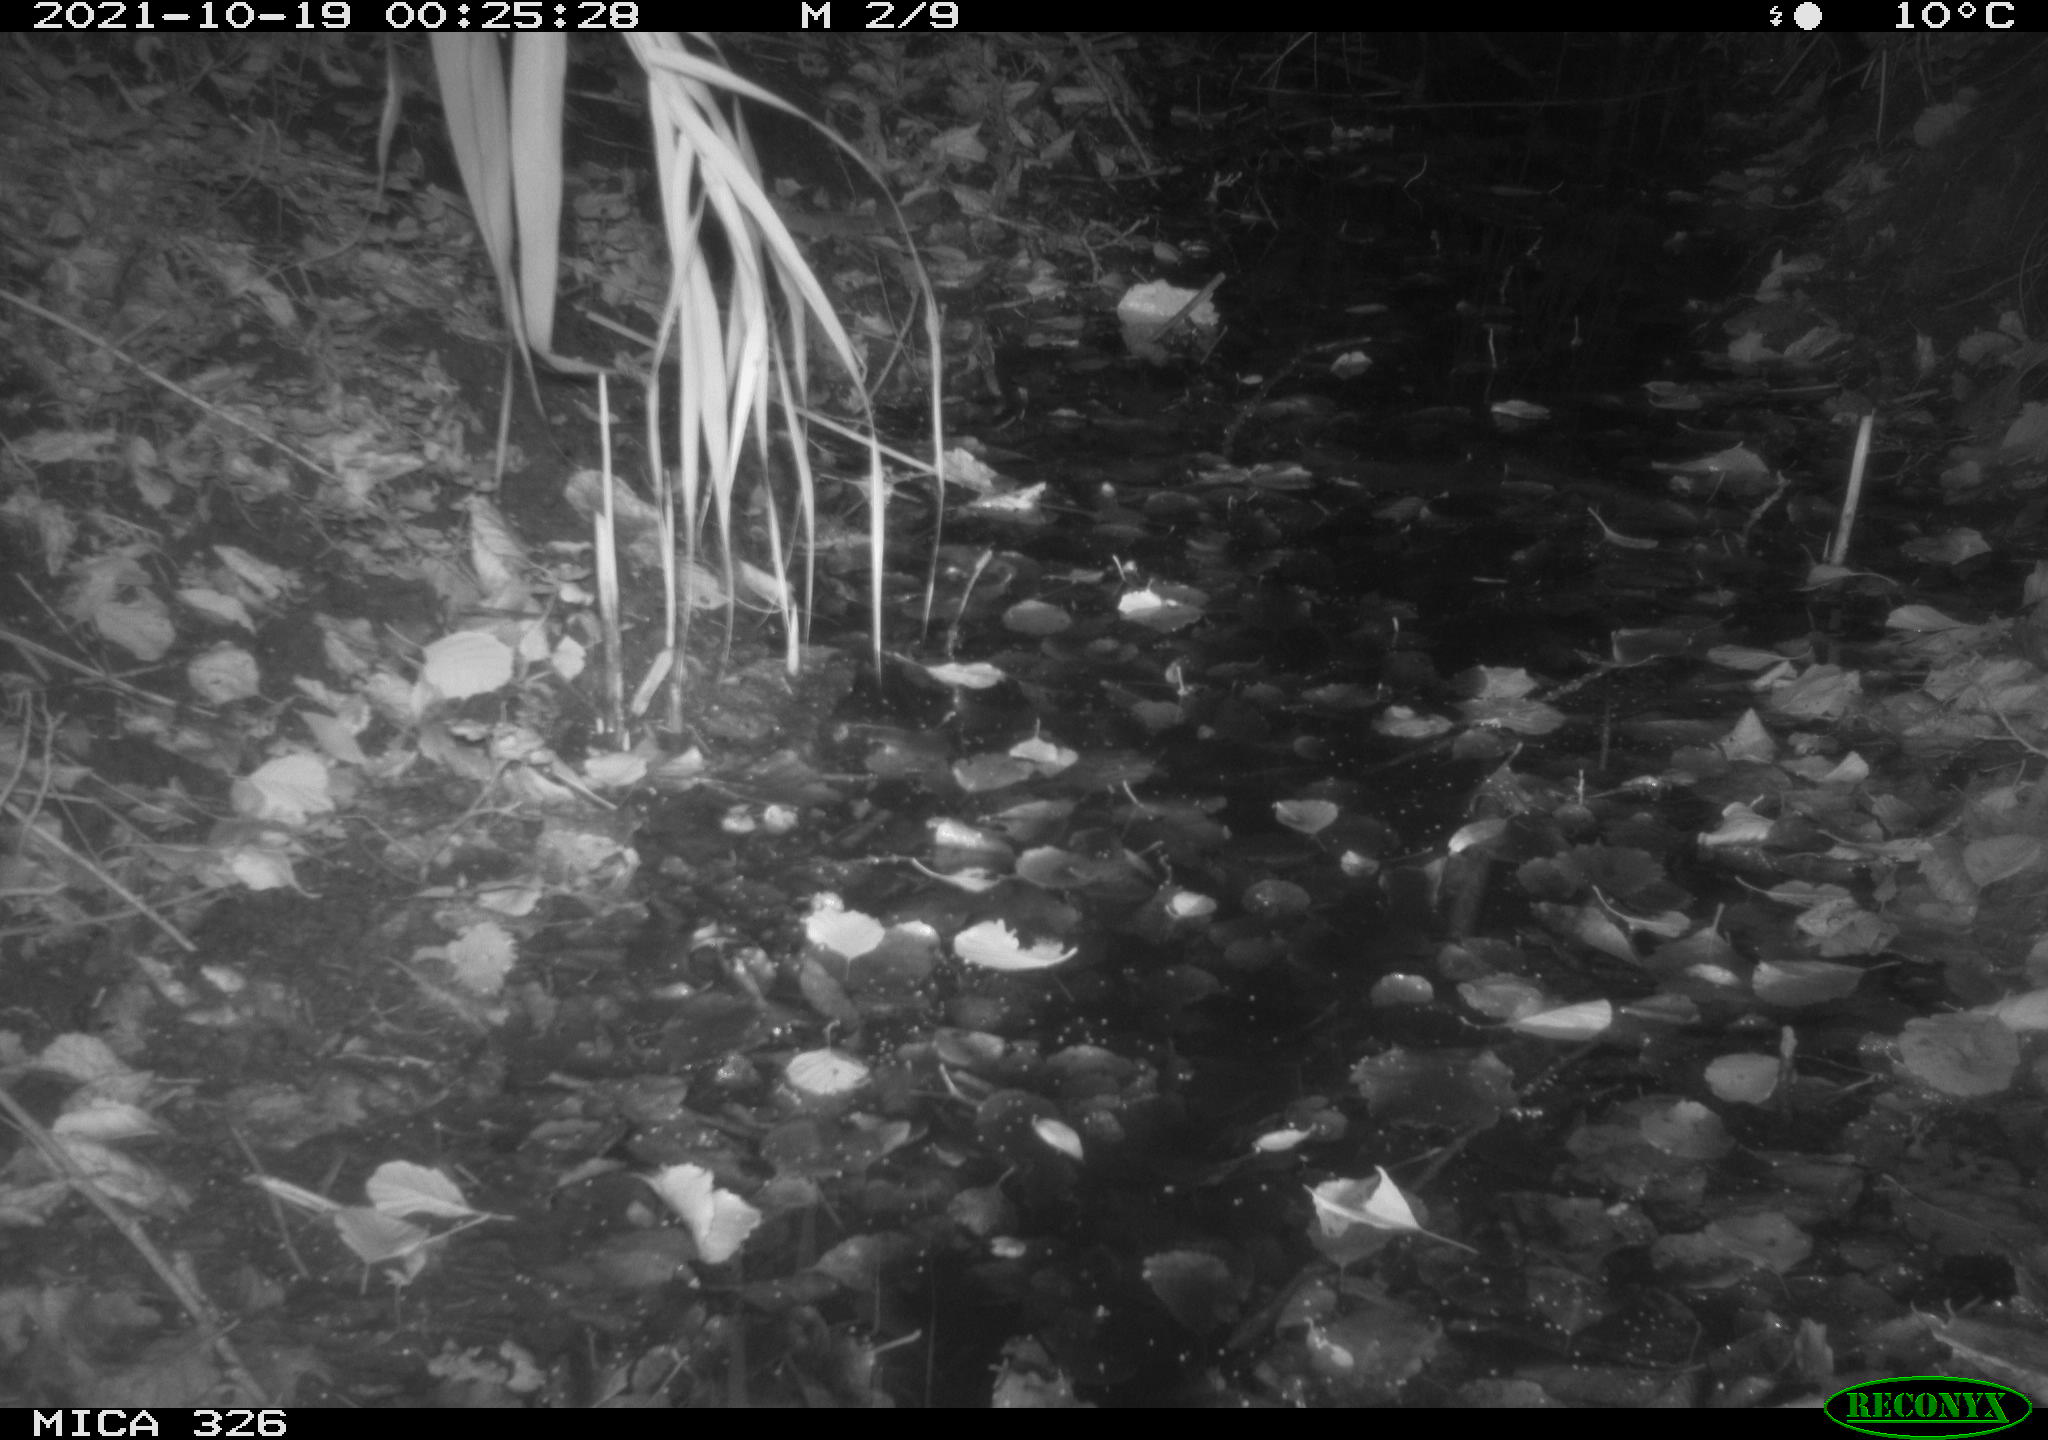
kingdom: Animalia
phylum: Chordata
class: Mammalia
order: Rodentia
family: Muridae
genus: Rattus
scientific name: Rattus norvegicus
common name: Brown rat
